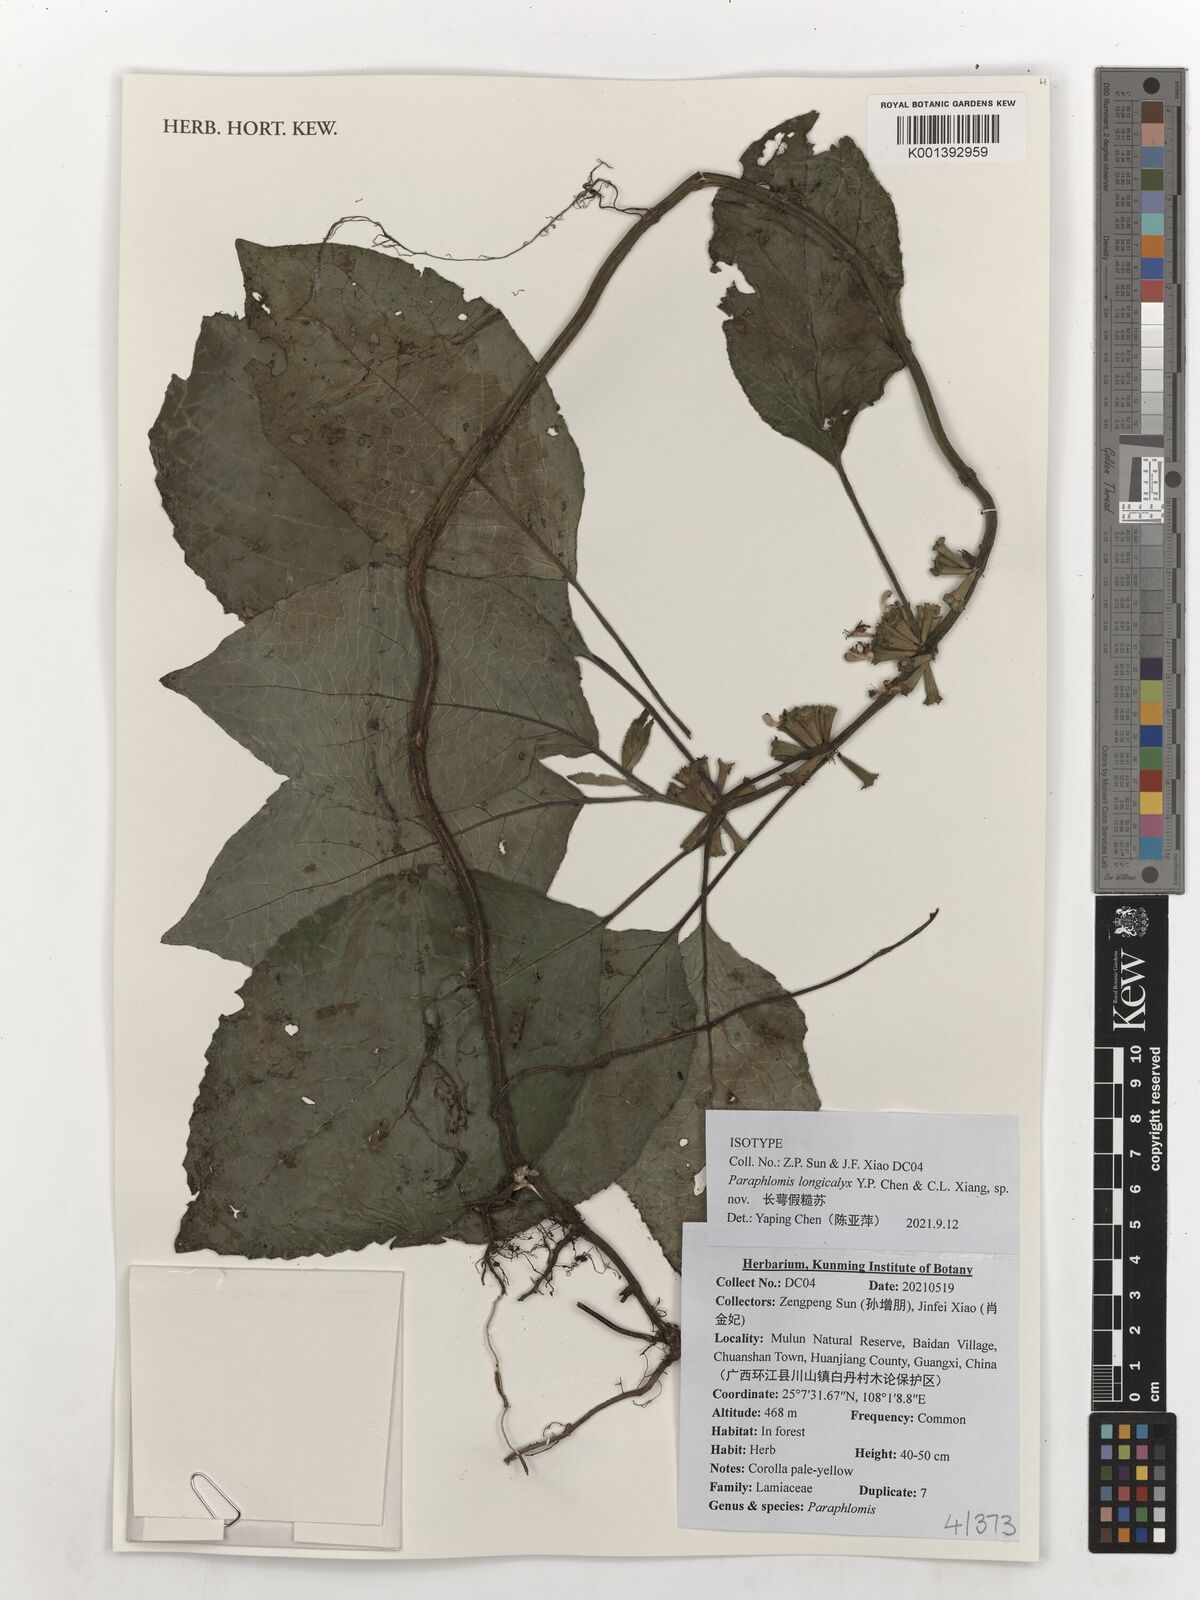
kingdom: Plantae
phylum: Tracheophyta
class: Magnoliopsida
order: Lamiales
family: Lamiaceae
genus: Paraphlomis
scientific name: Paraphlomis
